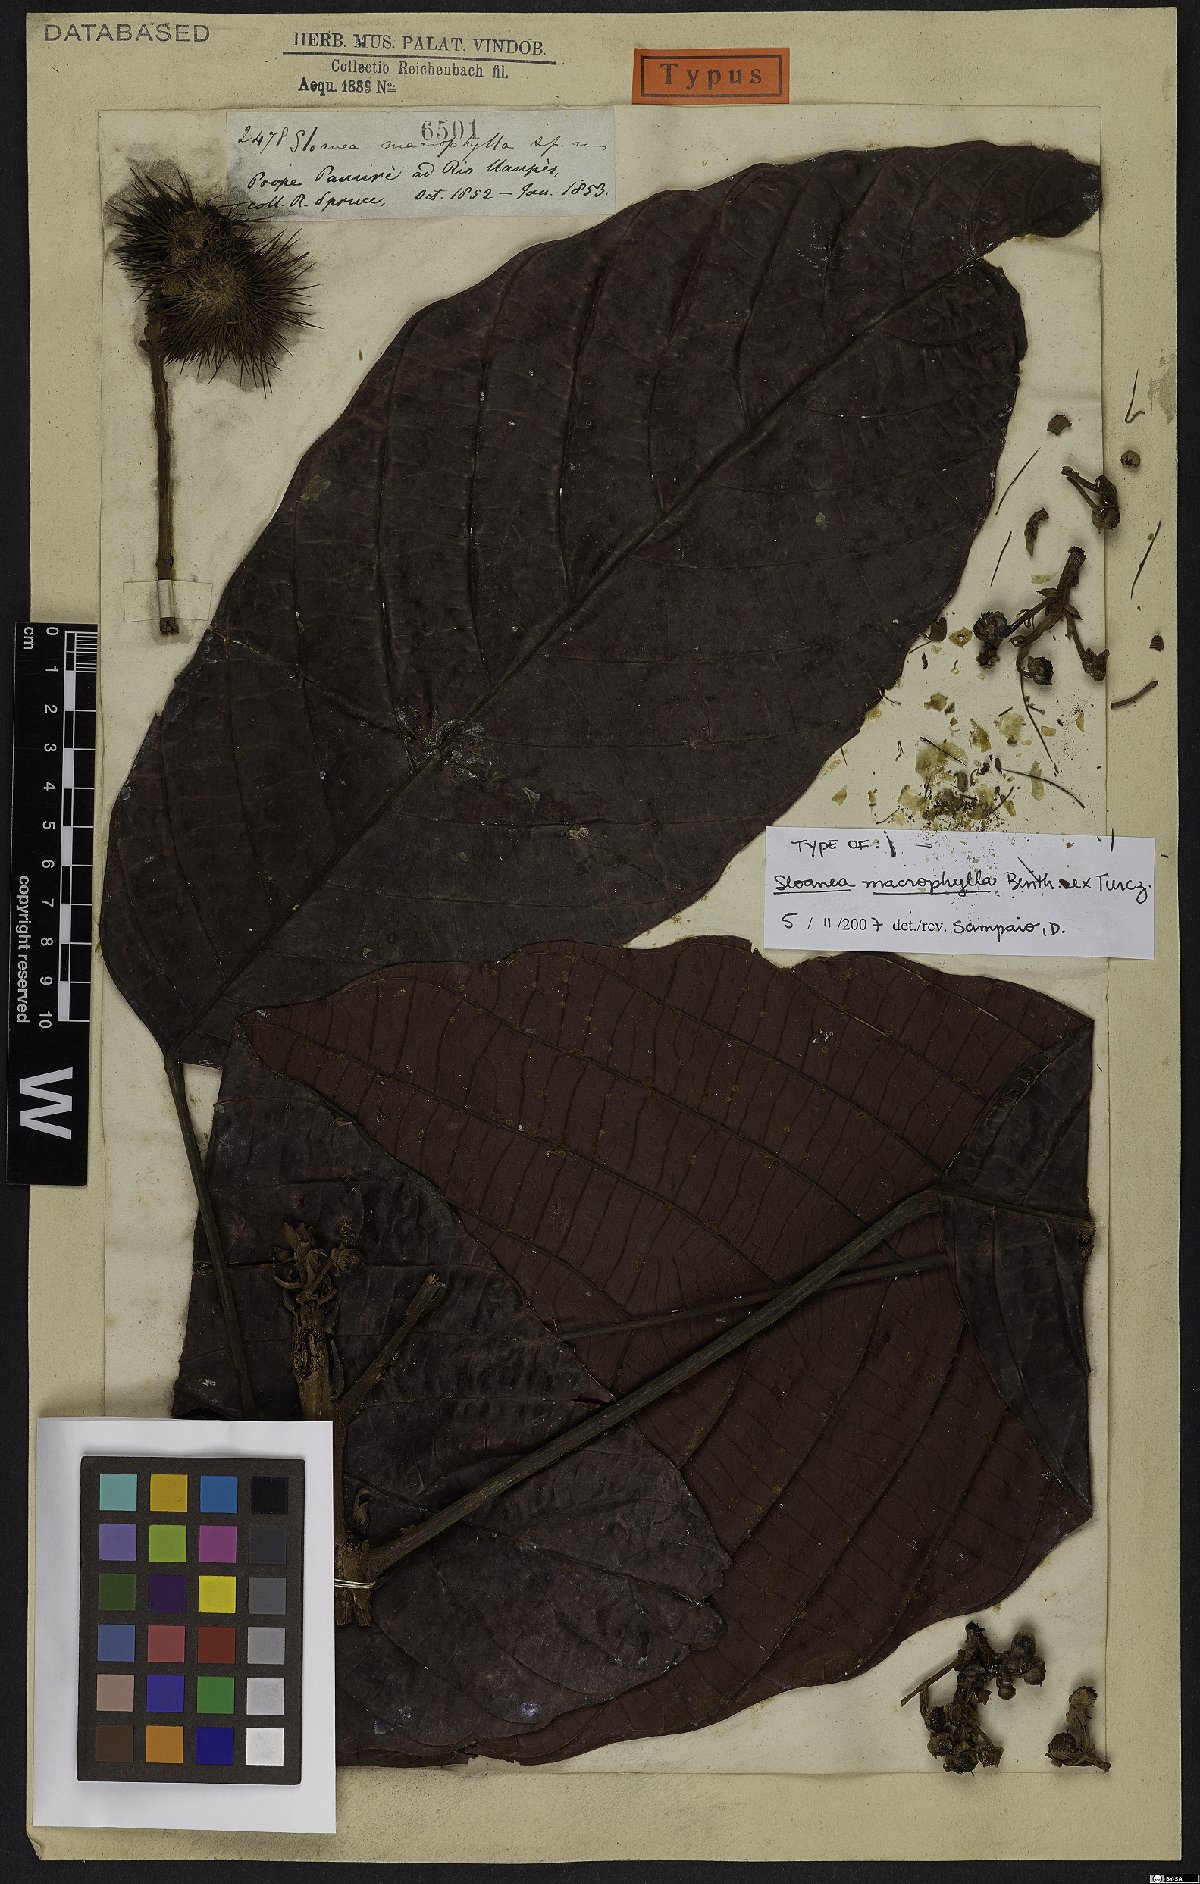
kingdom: Plantae
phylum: Tracheophyta
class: Magnoliopsida
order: Oxalidales
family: Elaeocarpaceae
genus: Sloanea
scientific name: Sloanea macrophylla
